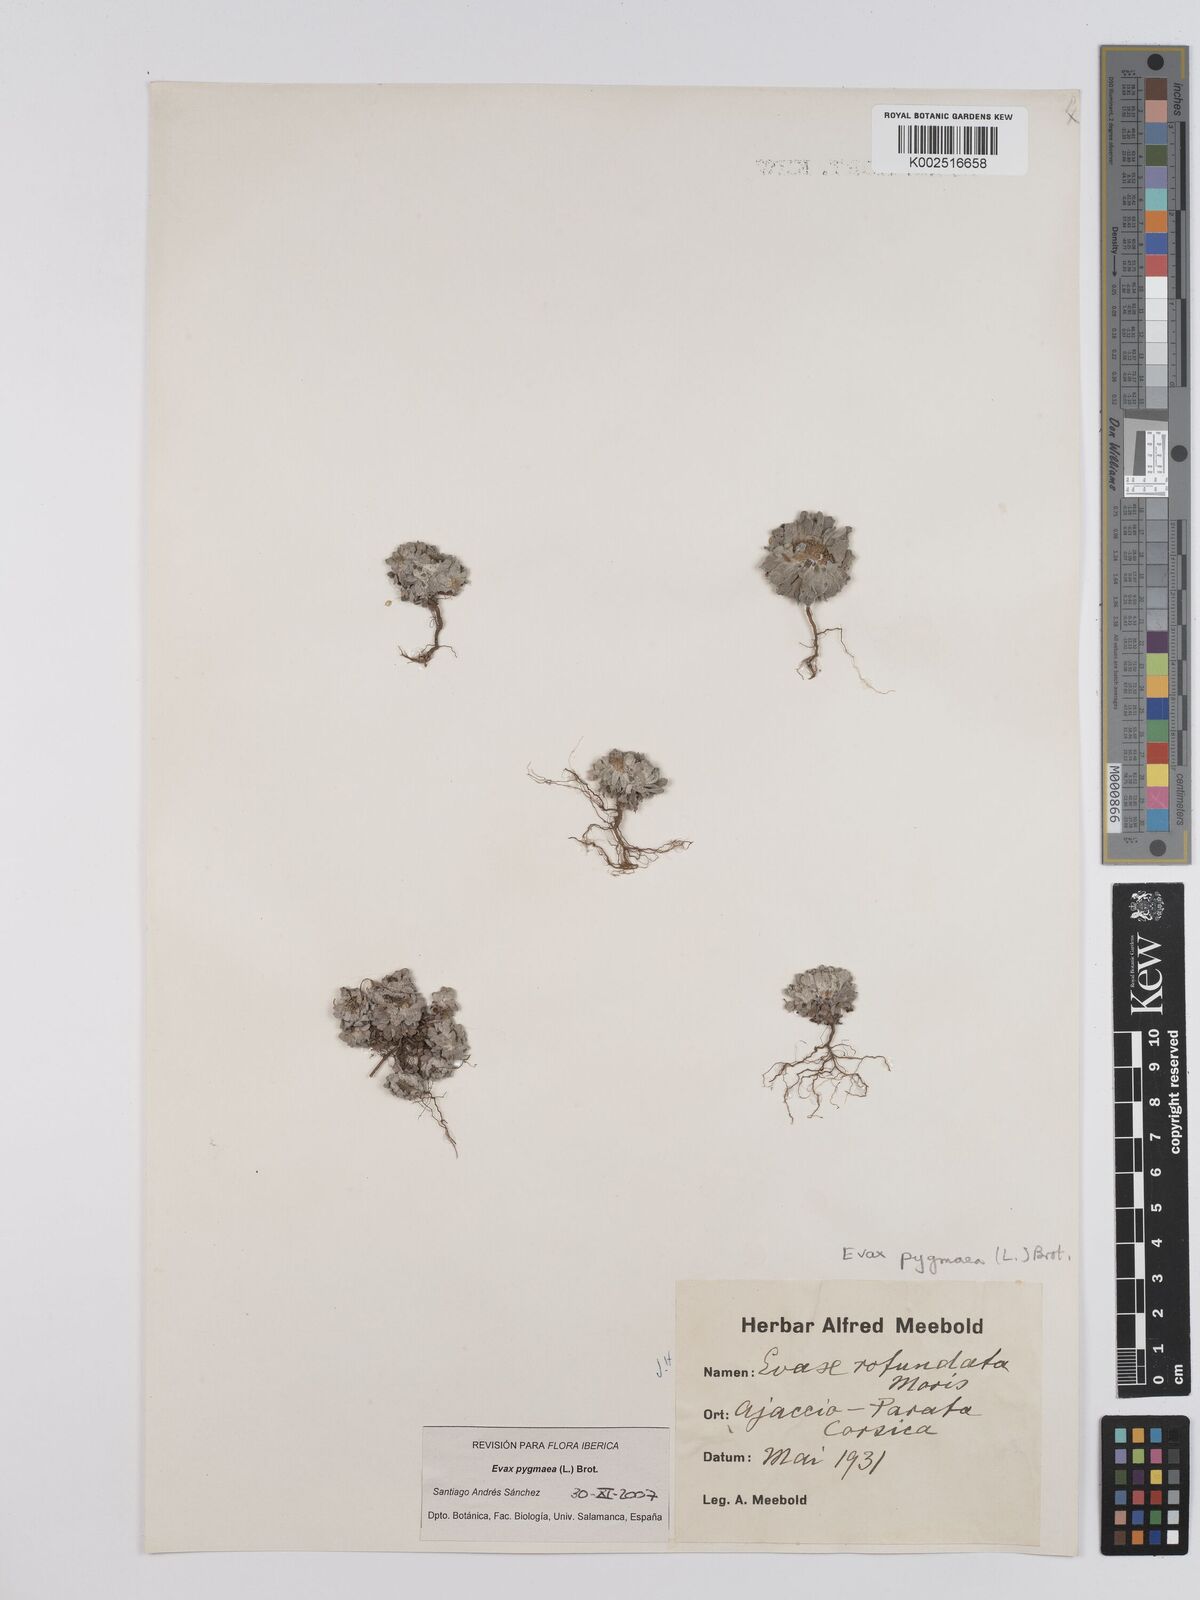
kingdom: Plantae
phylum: Tracheophyta
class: Magnoliopsida
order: Asterales
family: Asteraceae
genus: Filago
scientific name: Filago pygmaea
